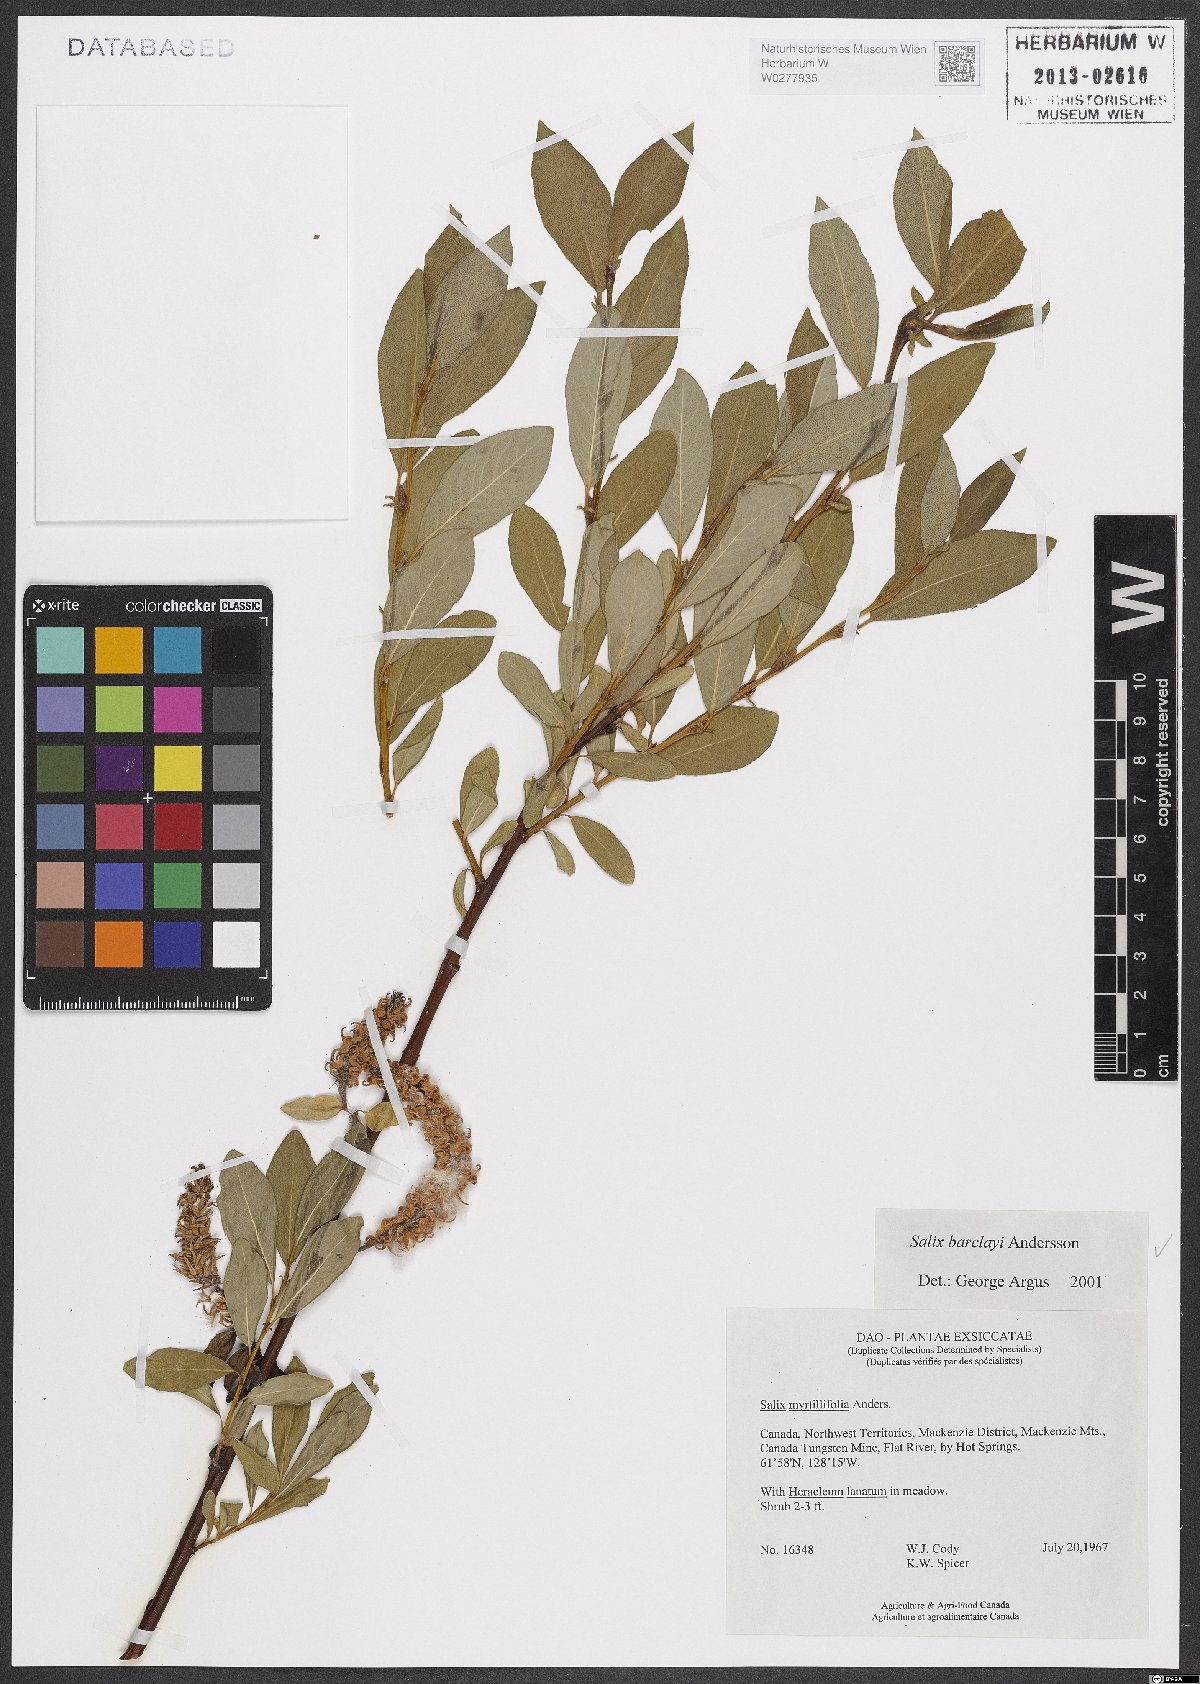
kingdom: Plantae
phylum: Tracheophyta
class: Magnoliopsida
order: Malpighiales
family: Salicaceae
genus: Salix
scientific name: Salix barclayi
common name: Mountain willow
